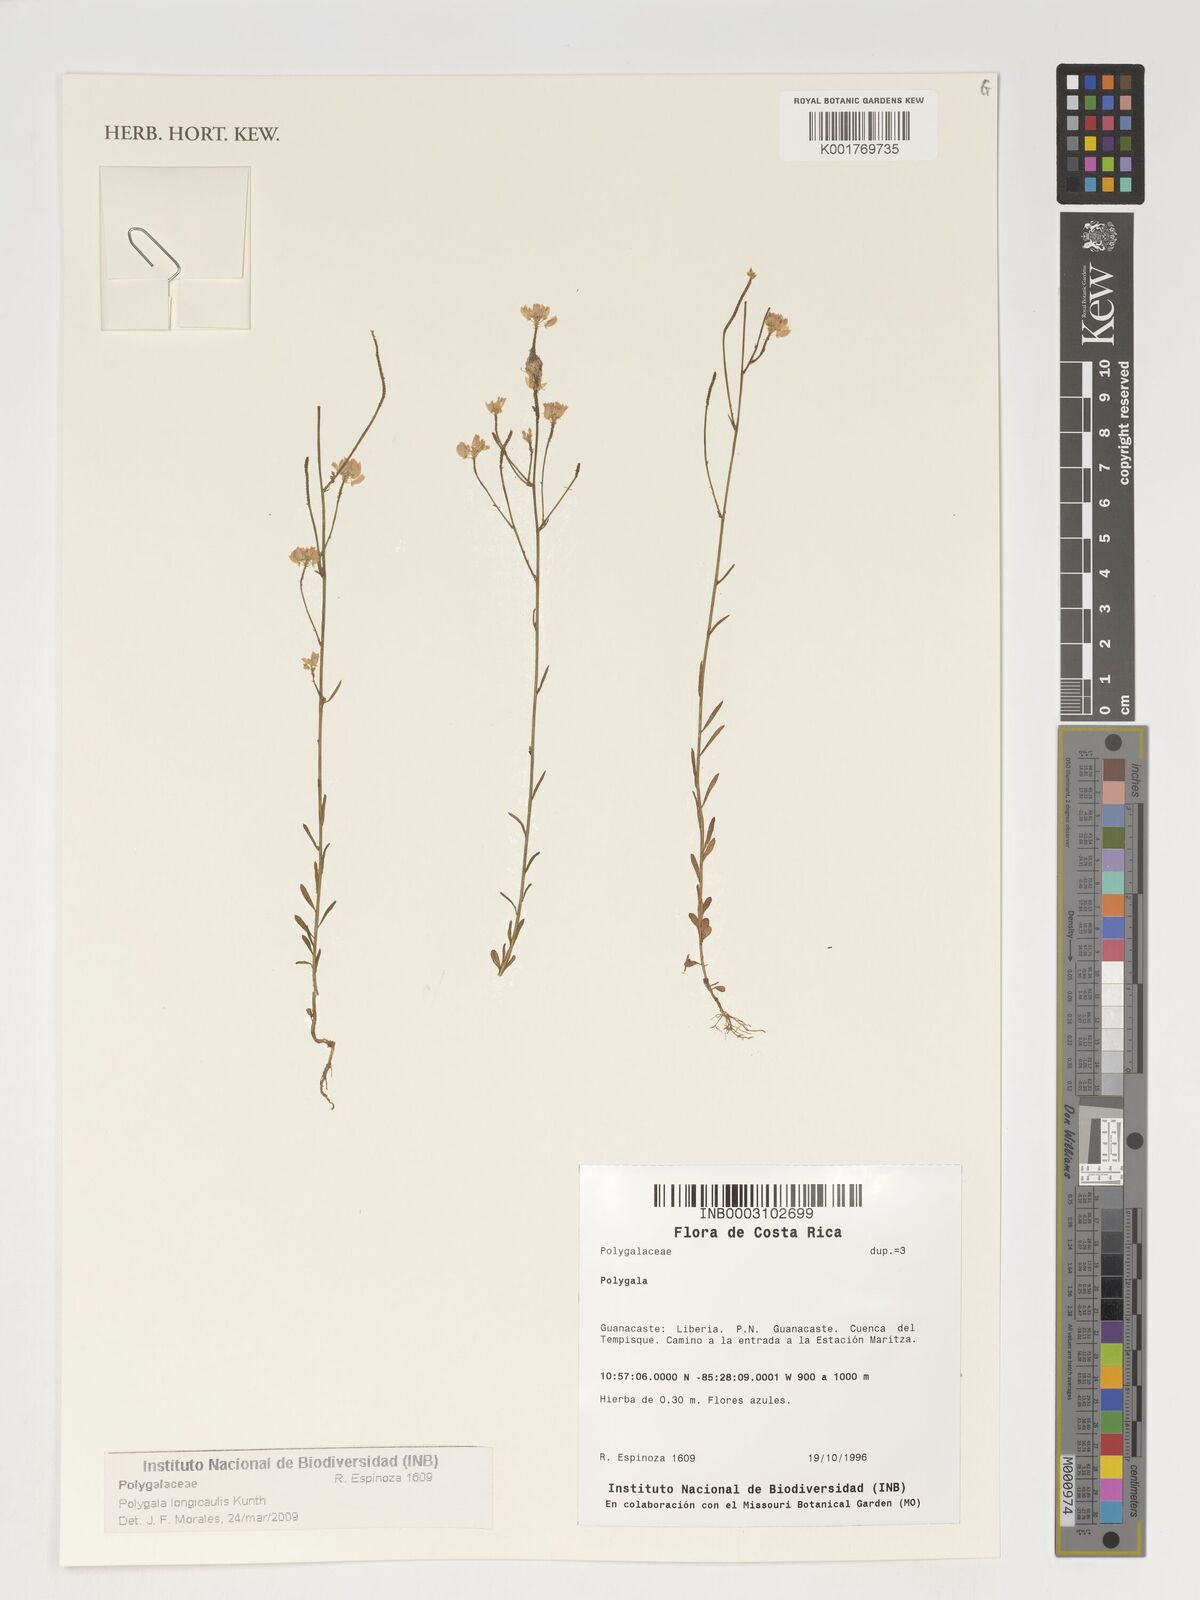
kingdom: Plantae
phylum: Tracheophyta
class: Magnoliopsida
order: Fabales
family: Polygalaceae
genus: Polygala
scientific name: Polygala longicaulis
